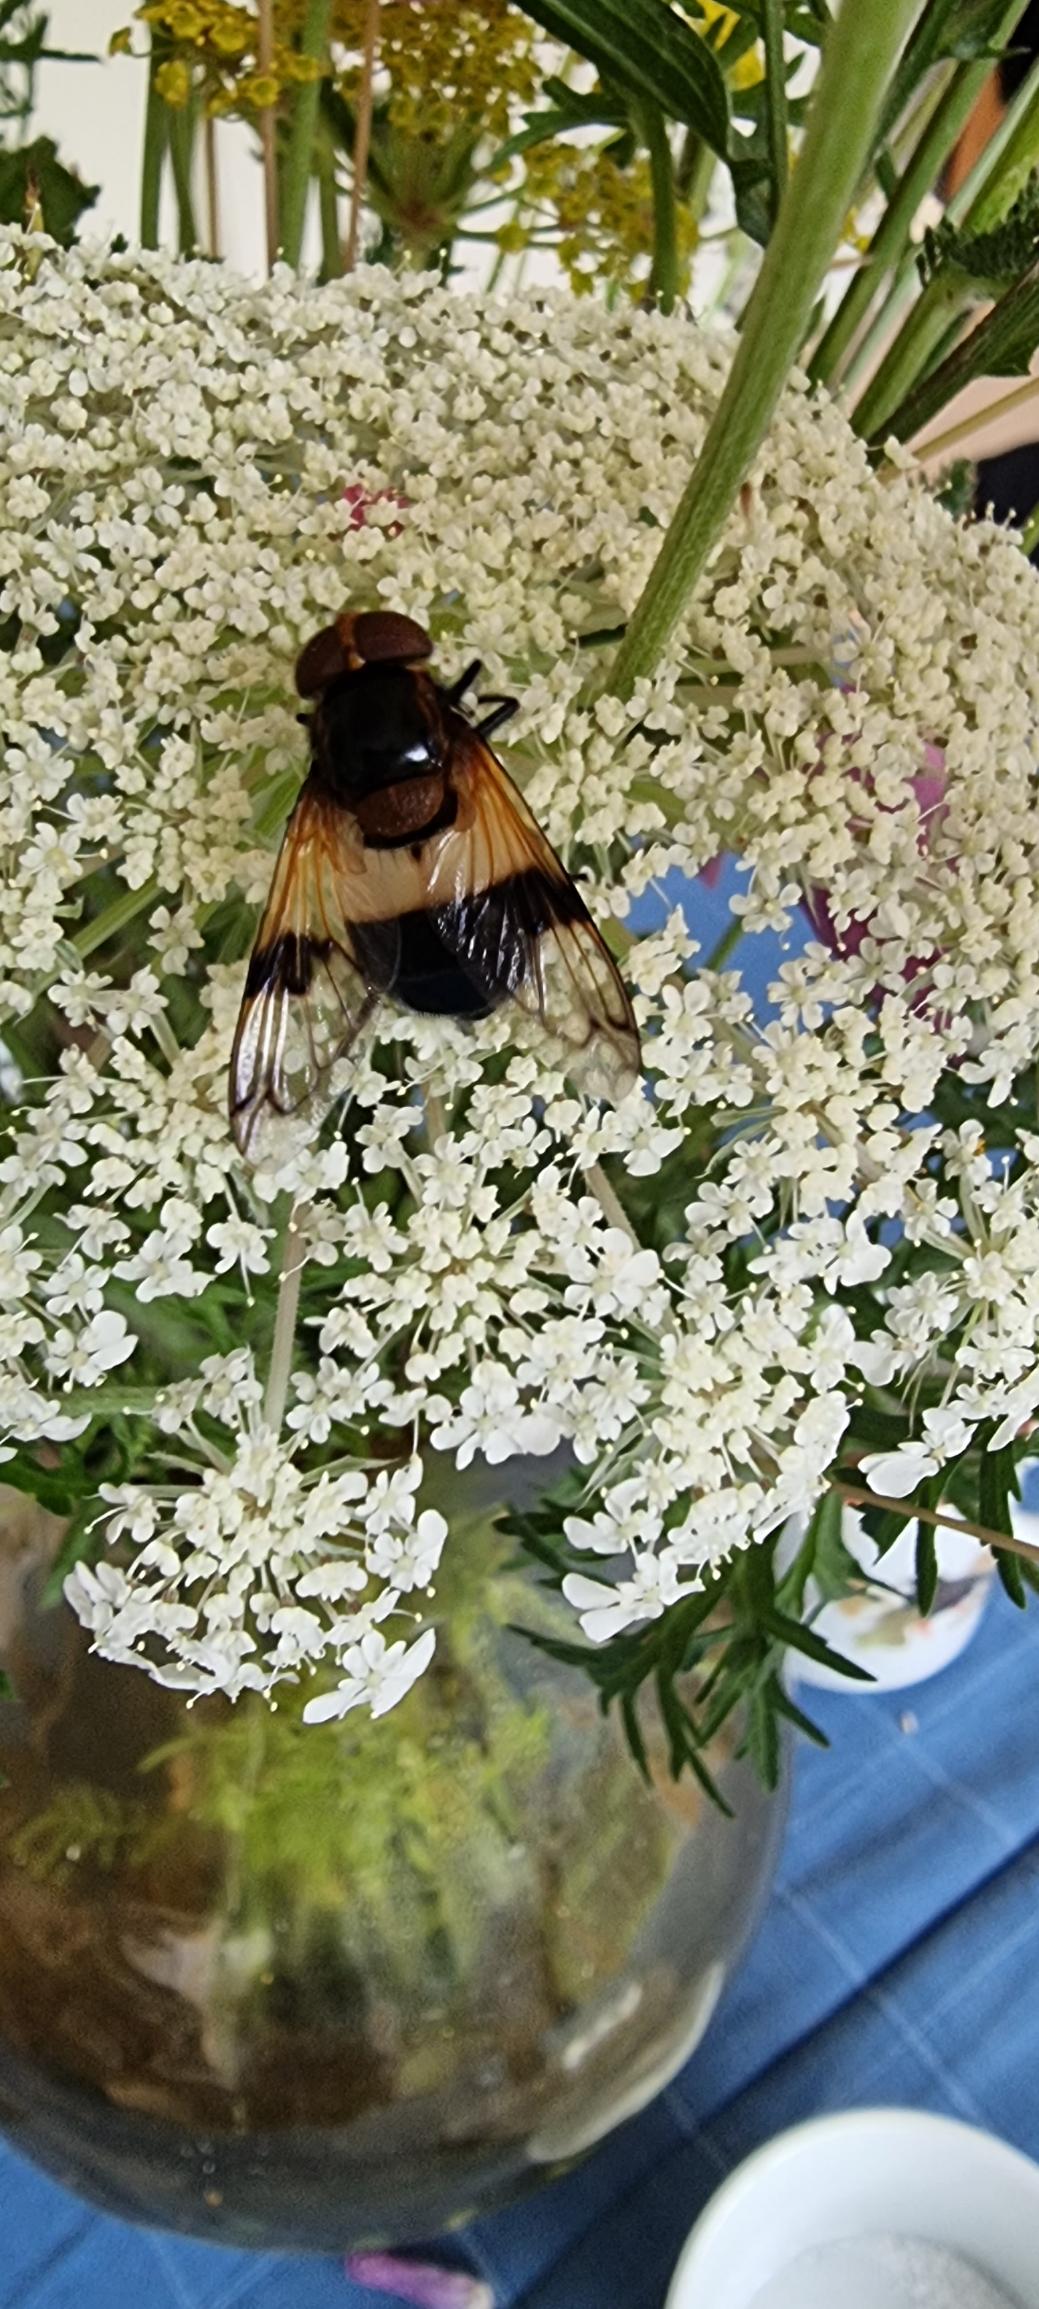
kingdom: Animalia
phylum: Arthropoda
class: Insecta
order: Diptera
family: Syrphidae
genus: Volucella
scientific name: Volucella pellucens
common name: Hvidbåndet humlesvirreflue
